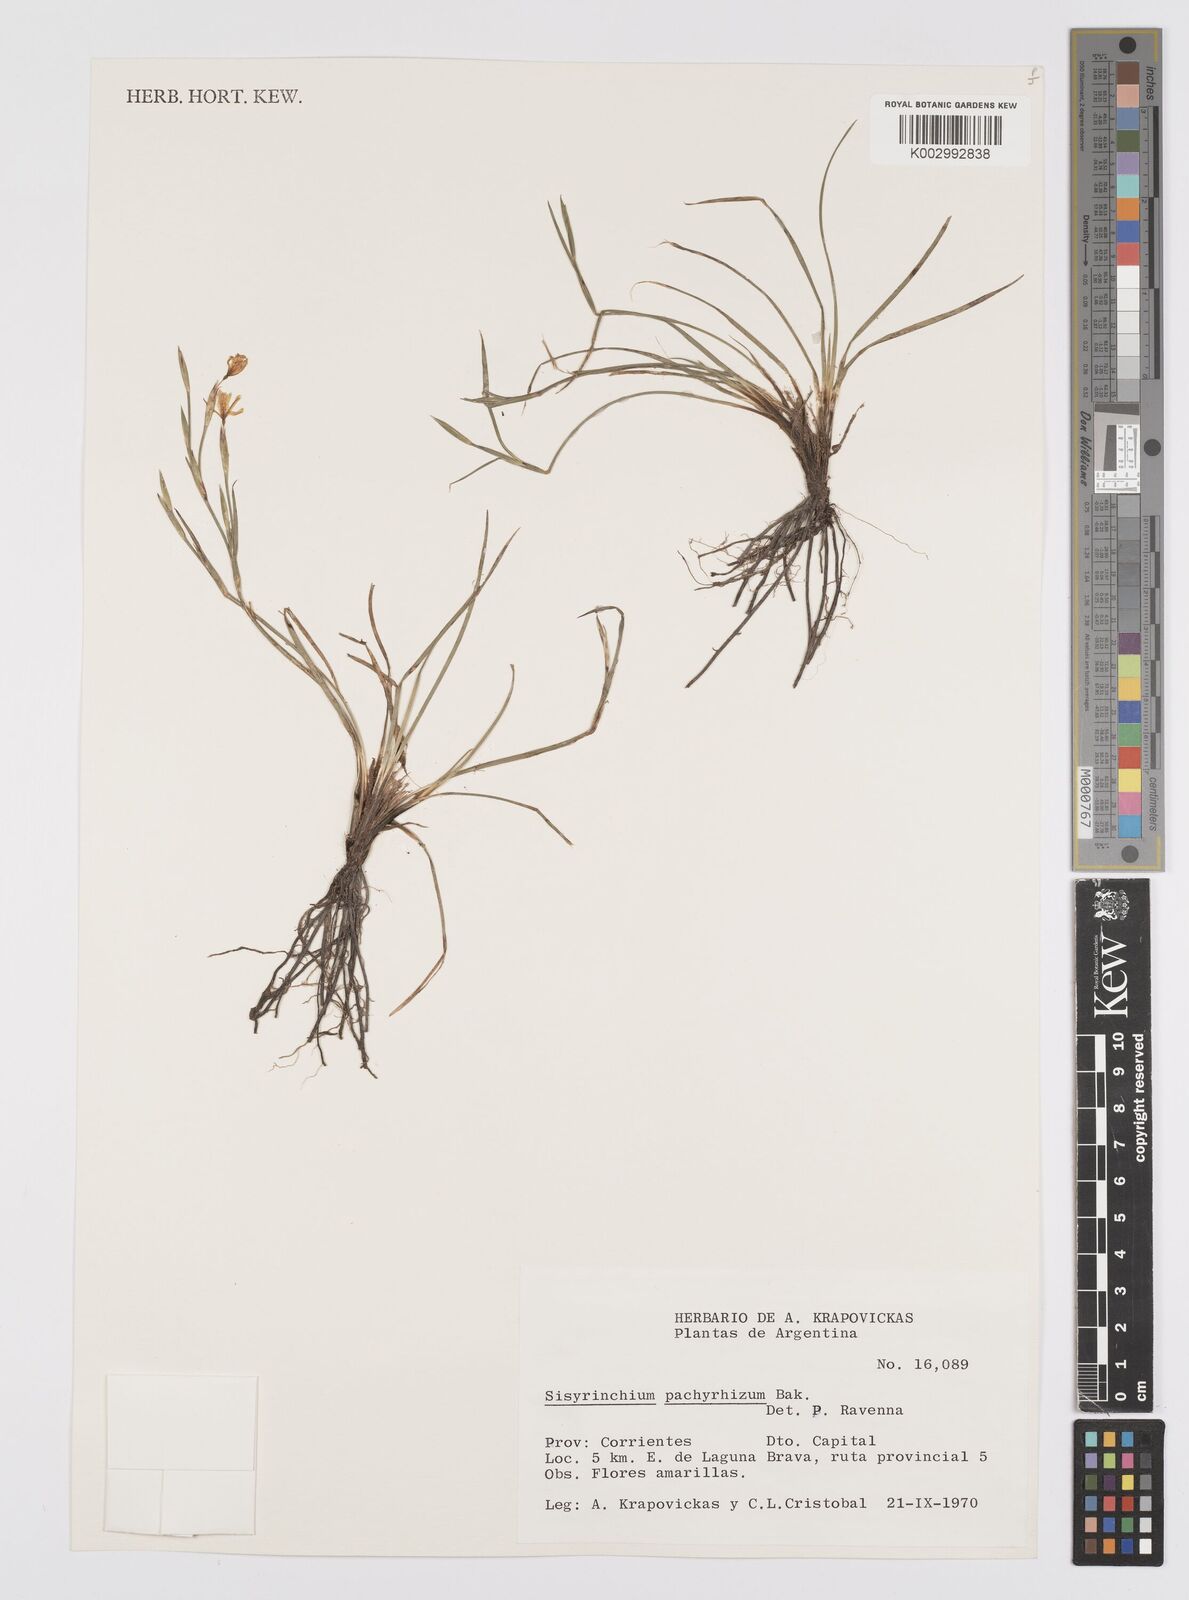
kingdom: Plantae
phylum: Tracheophyta
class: Liliopsida
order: Asparagales
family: Iridaceae
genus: Sisyrinchium
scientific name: Sisyrinchium pachyrhizum
